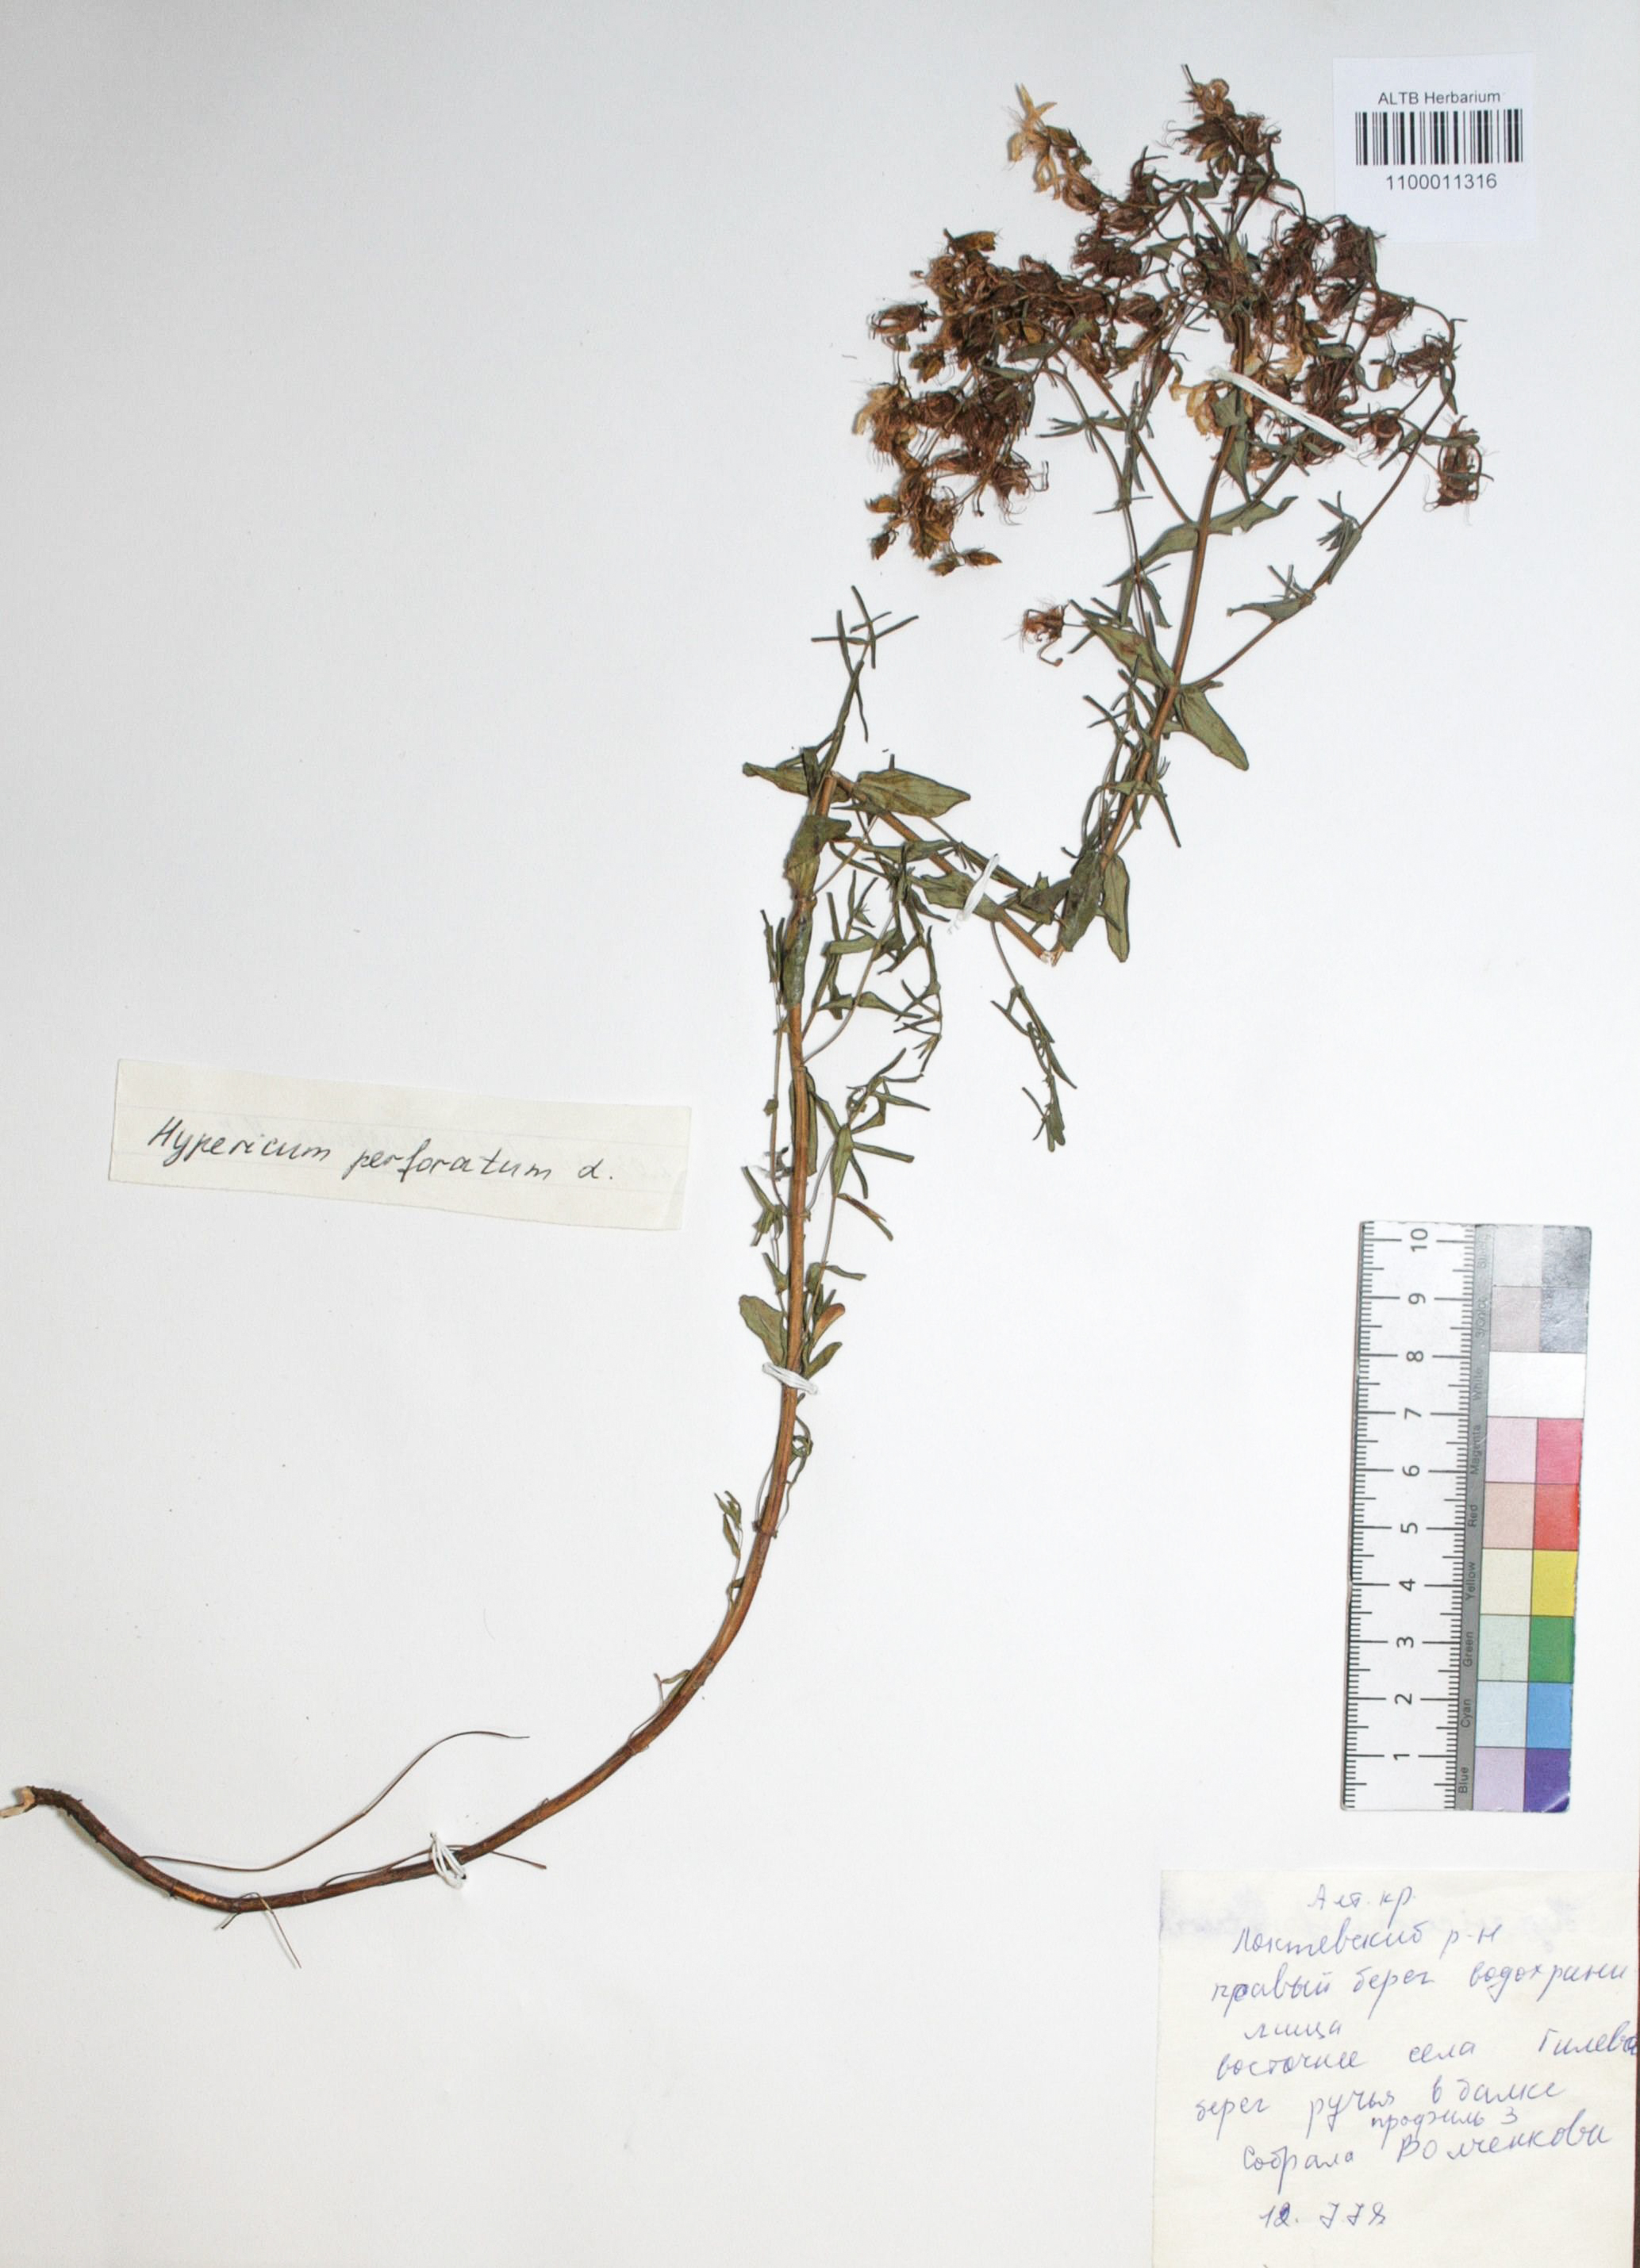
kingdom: Plantae
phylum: Tracheophyta
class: Magnoliopsida
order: Malpighiales
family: Hypericaceae
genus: Hypericum
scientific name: Hypericum perforatum
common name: Common st. johnswort
